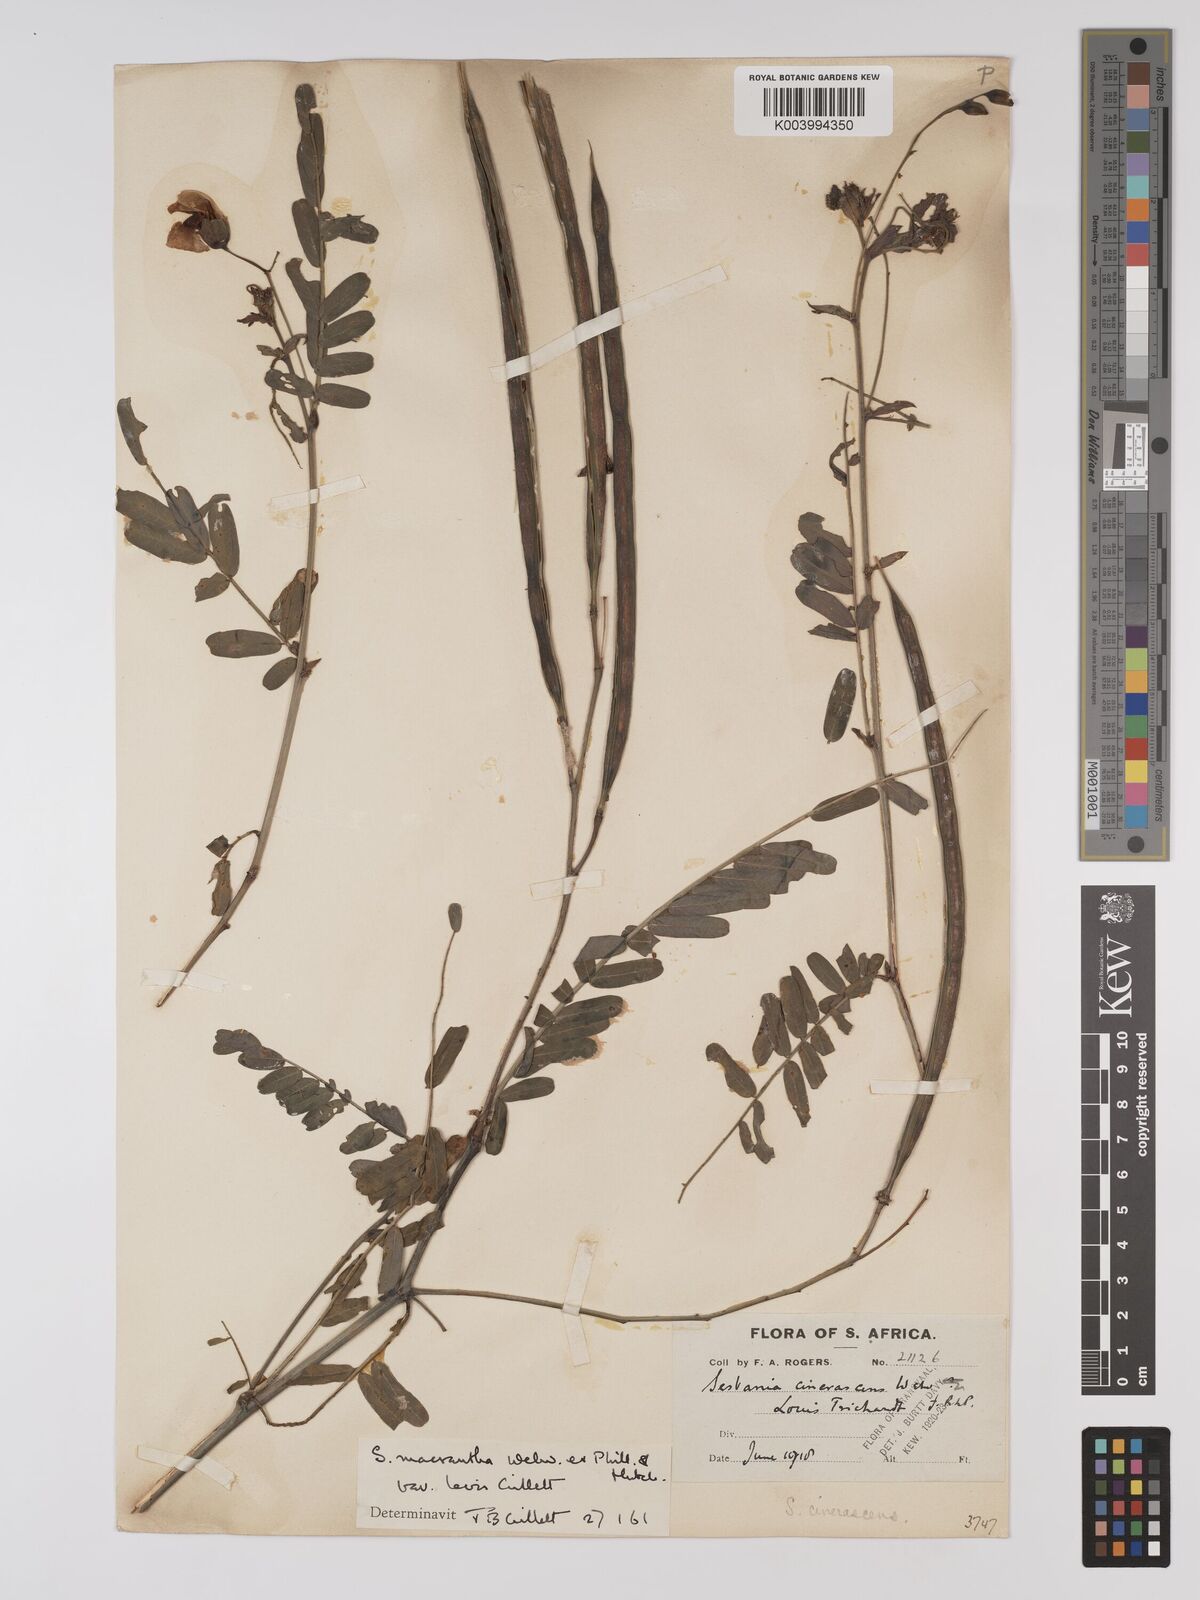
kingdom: Plantae
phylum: Tracheophyta
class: Magnoliopsida
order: Fabales
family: Fabaceae
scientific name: Fabaceae
